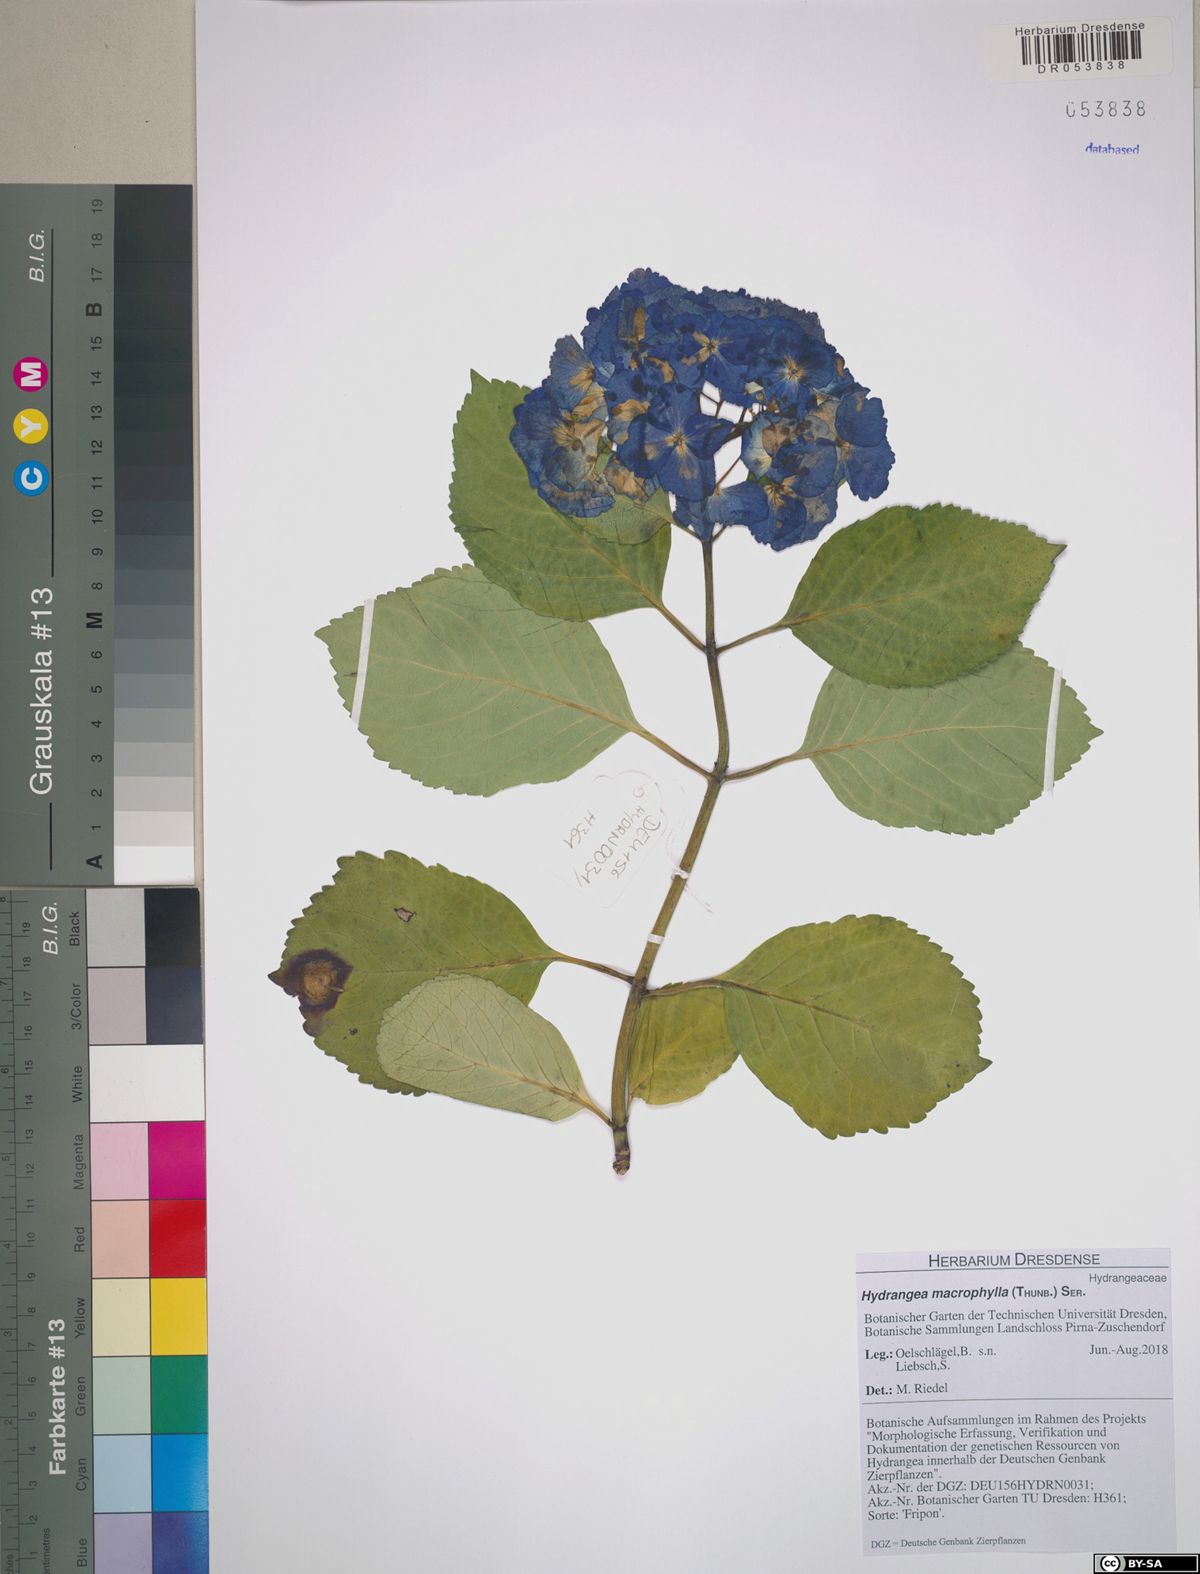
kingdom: Plantae
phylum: Tracheophyta
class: Magnoliopsida
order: Cornales
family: Hydrangeaceae
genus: Hydrangea
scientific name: Hydrangea macrophylla
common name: Hydrangea
